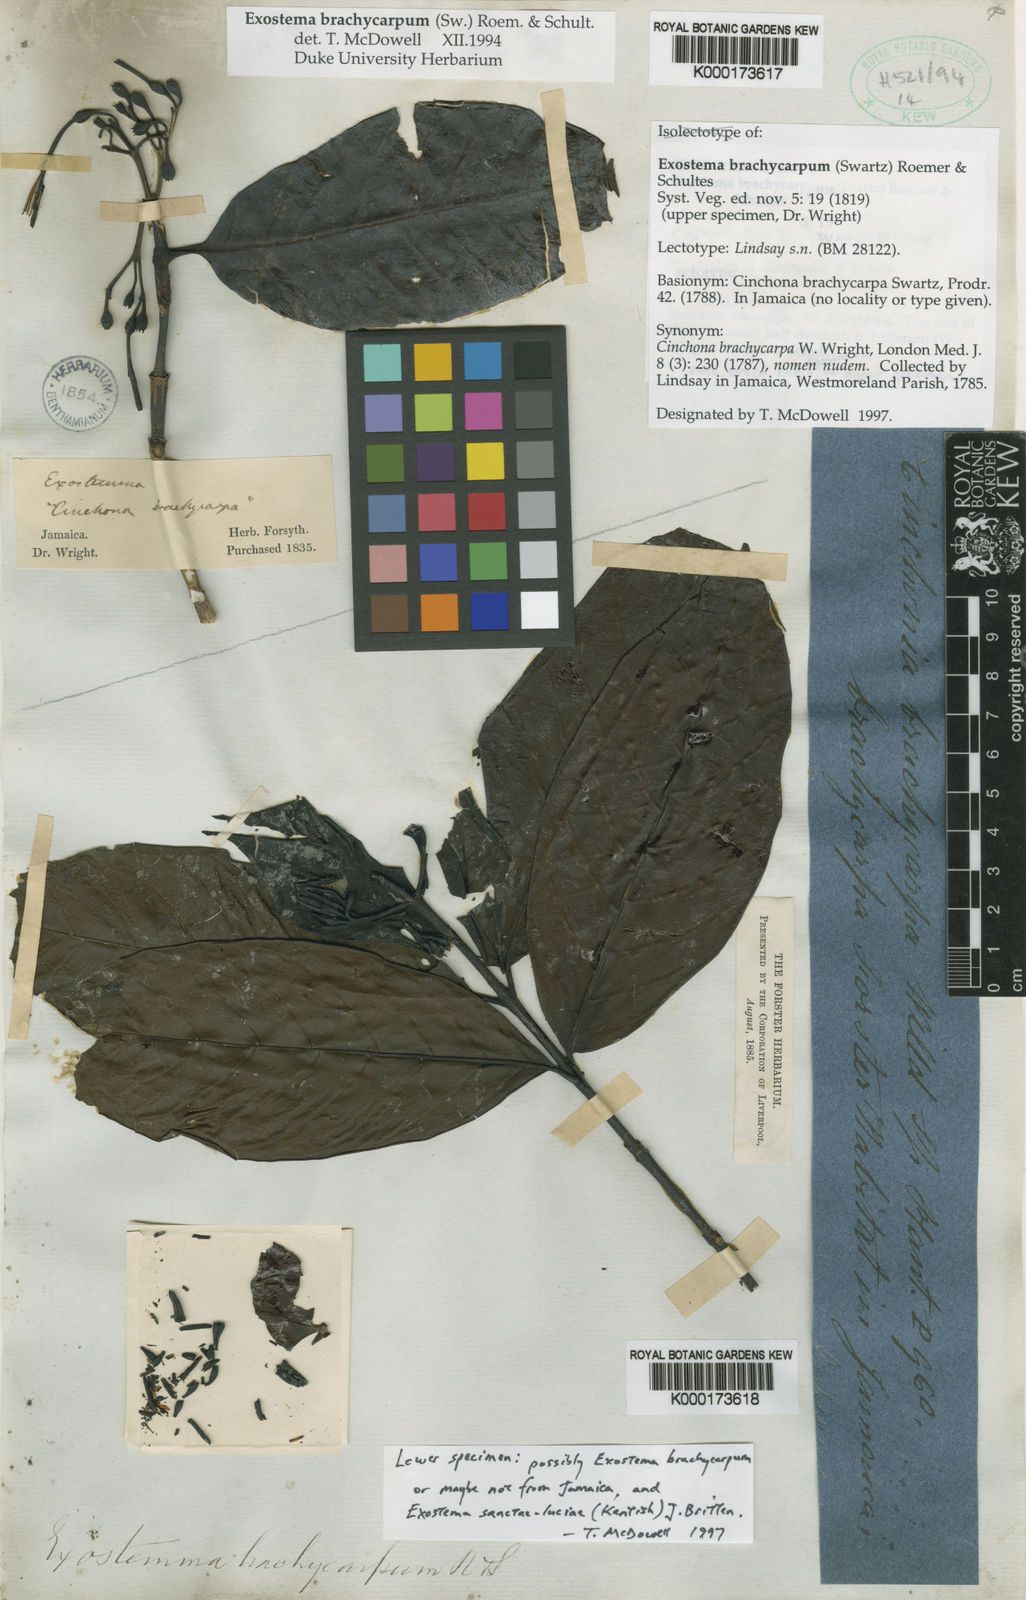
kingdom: Plantae
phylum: Tracheophyta
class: Magnoliopsida
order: Gentianales
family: Rubiaceae
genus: Solenandra
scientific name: Solenandra brachycarpa
